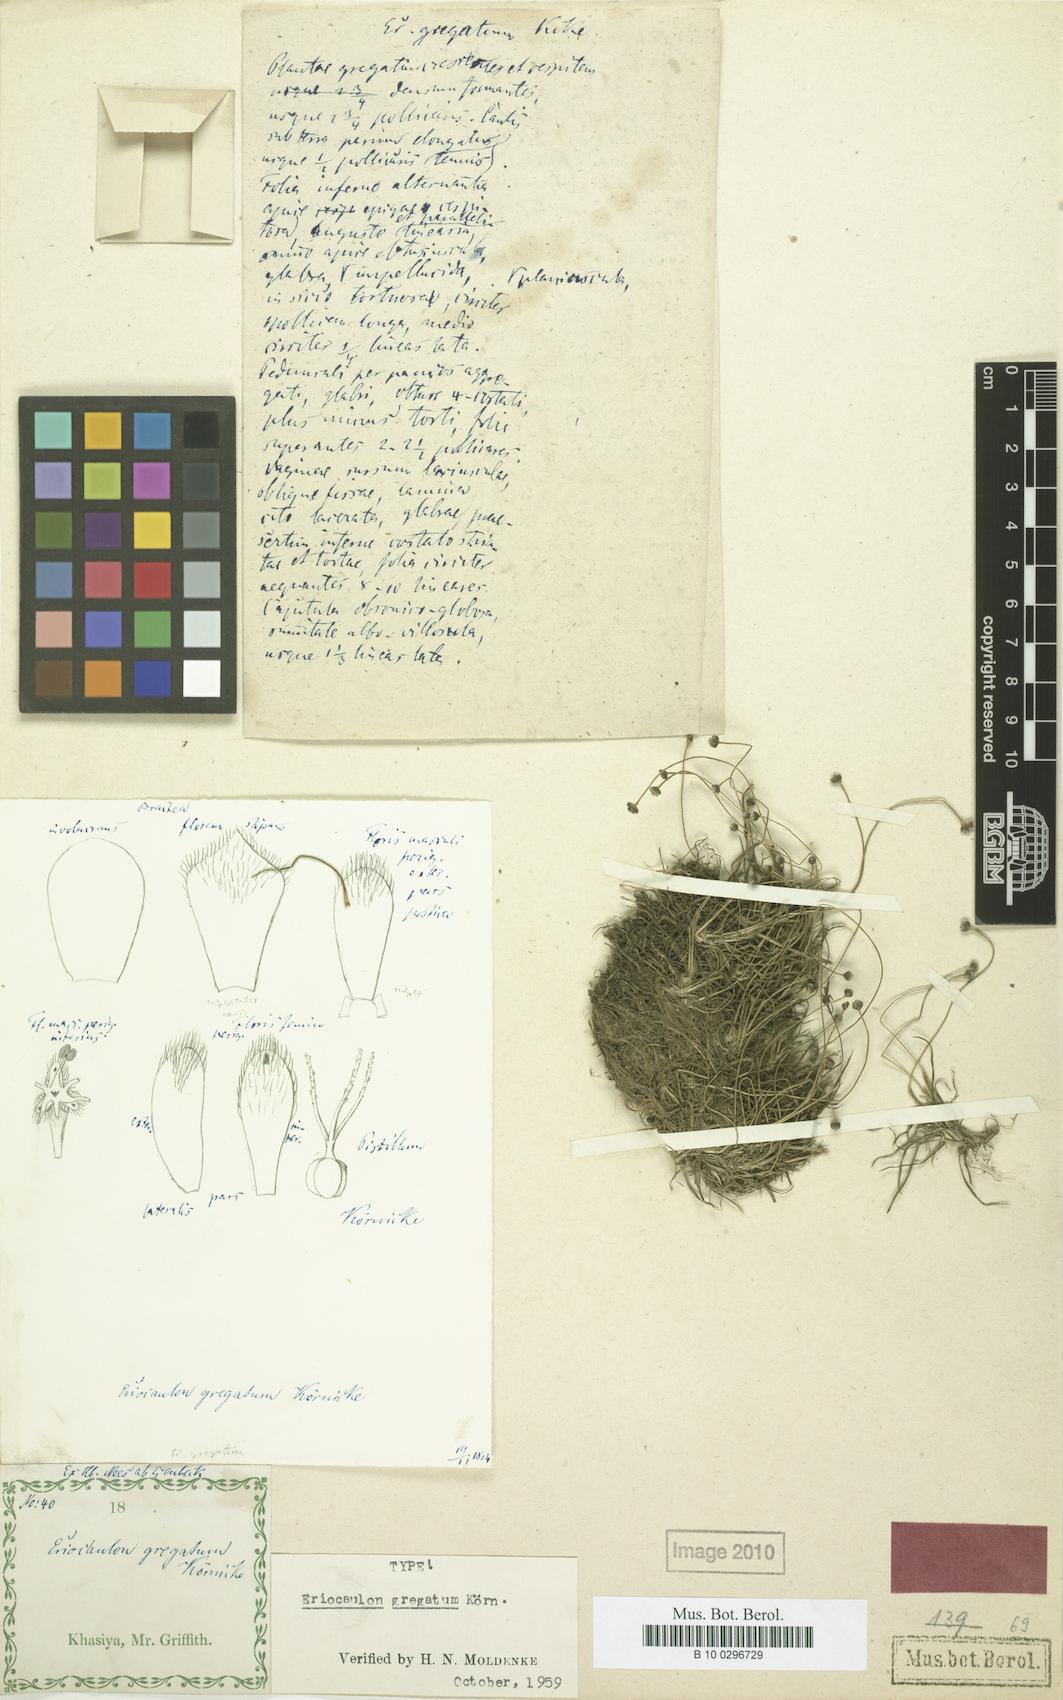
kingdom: Plantae
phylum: Tracheophyta
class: Liliopsida
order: Poales
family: Eriocaulaceae
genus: Eriocaulon
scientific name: Eriocaulon gregatum
